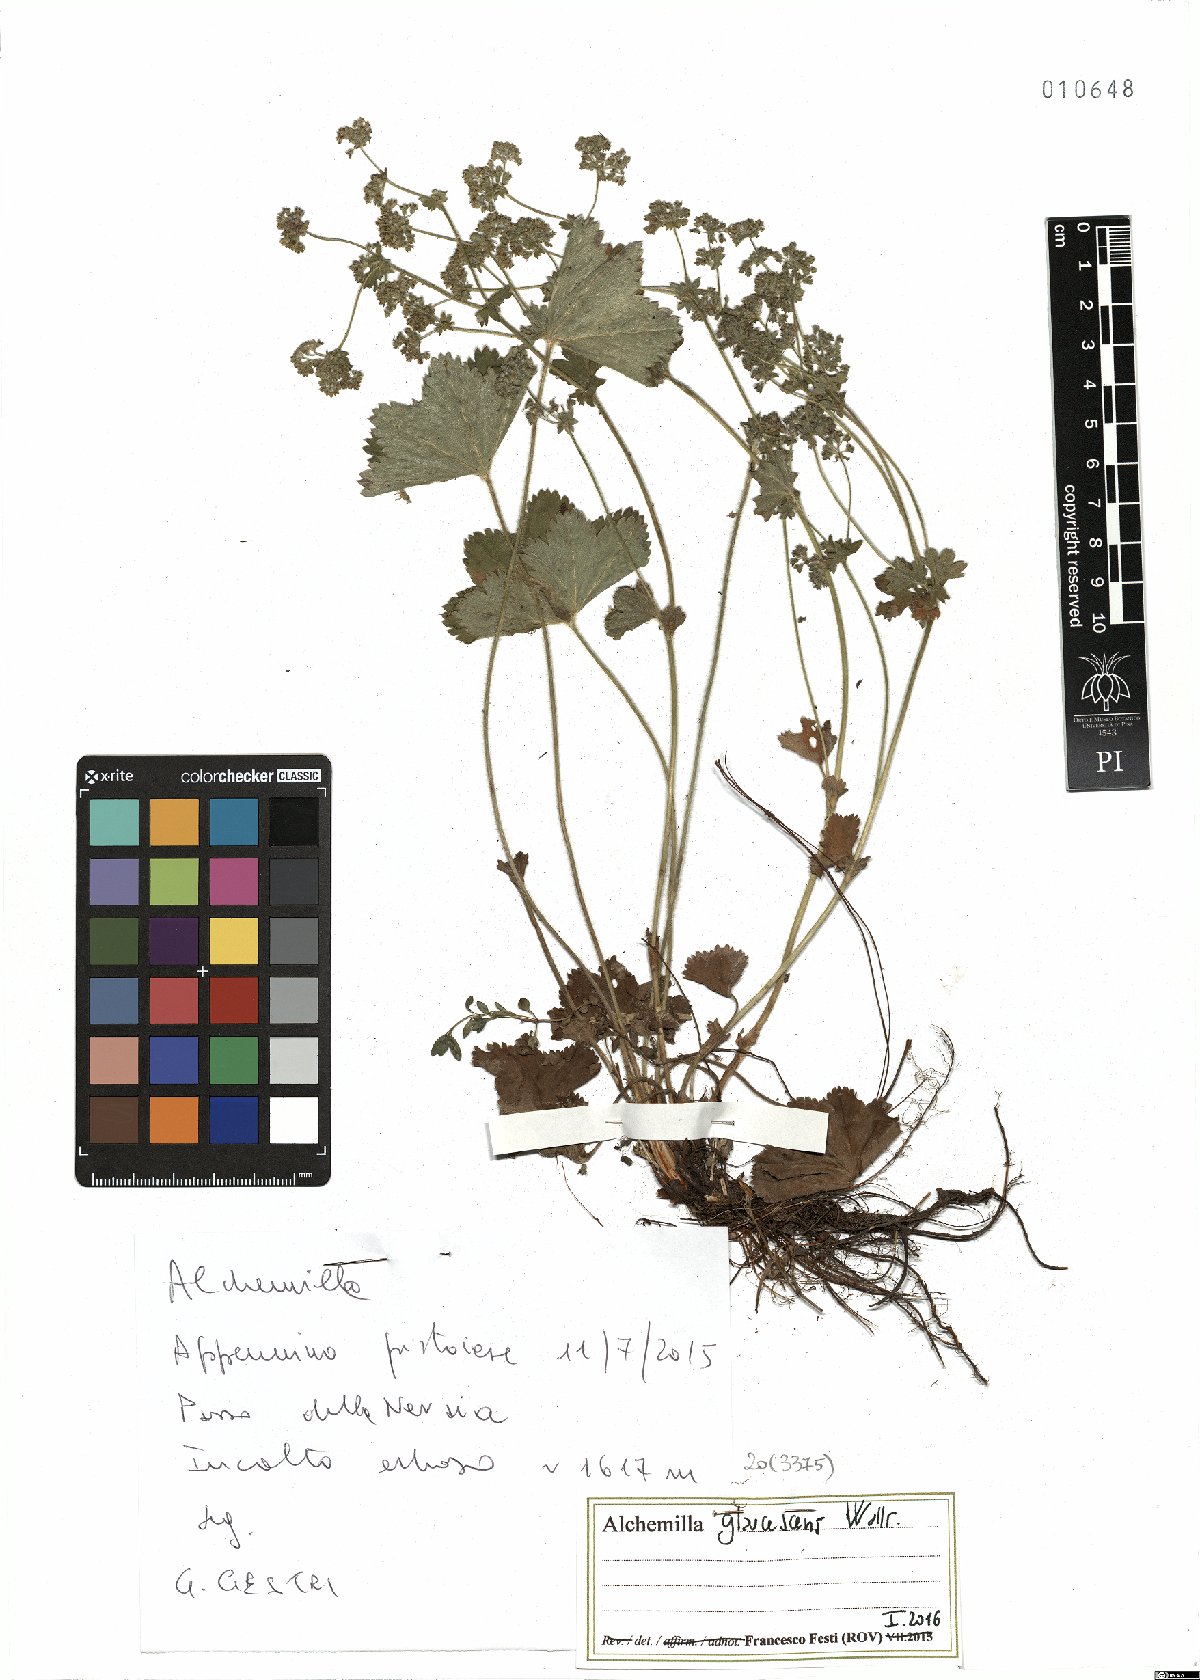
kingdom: Plantae
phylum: Tracheophyta
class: Magnoliopsida
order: Rosales
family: Rosaceae
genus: Alchemilla
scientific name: Alchemilla glaucescens
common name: Silky lady's mantle
